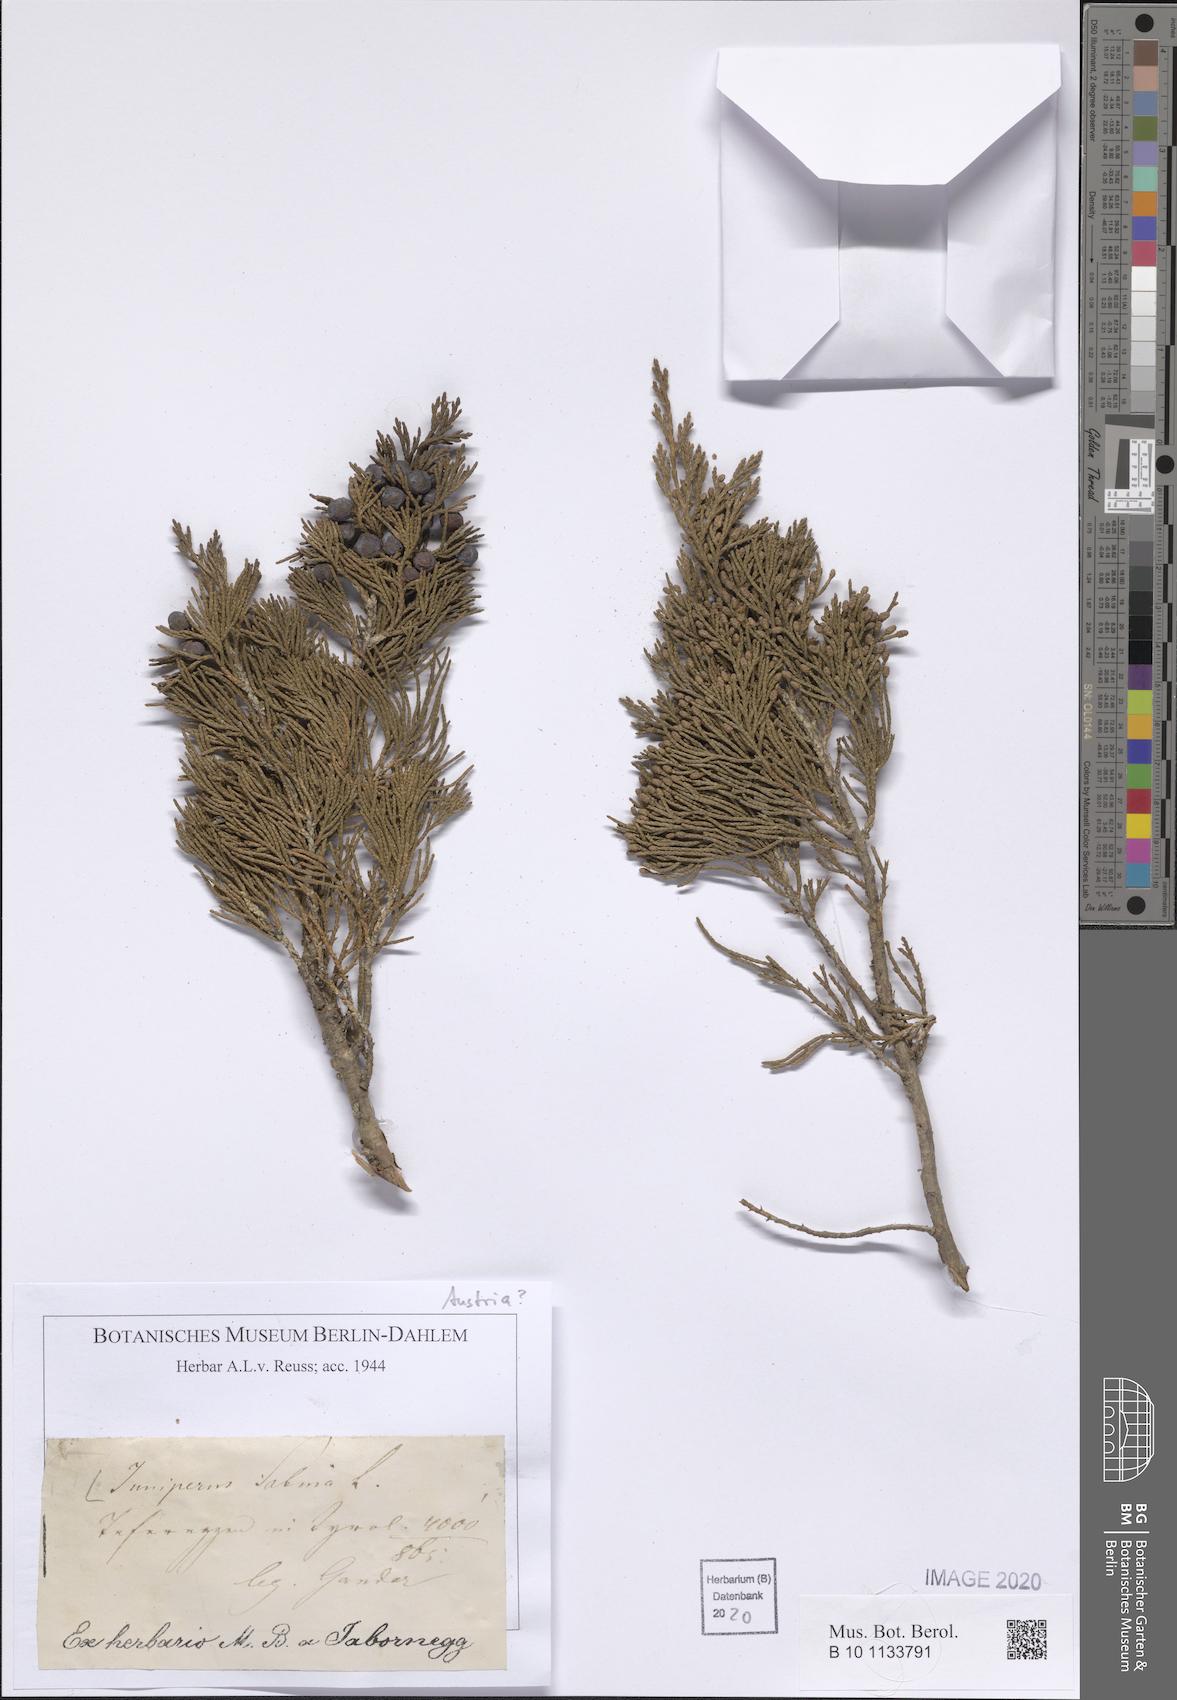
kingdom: Plantae
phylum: Tracheophyta
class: Pinopsida
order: Pinales
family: Cupressaceae
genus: Juniperus
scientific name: Juniperus sabina
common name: Savin
